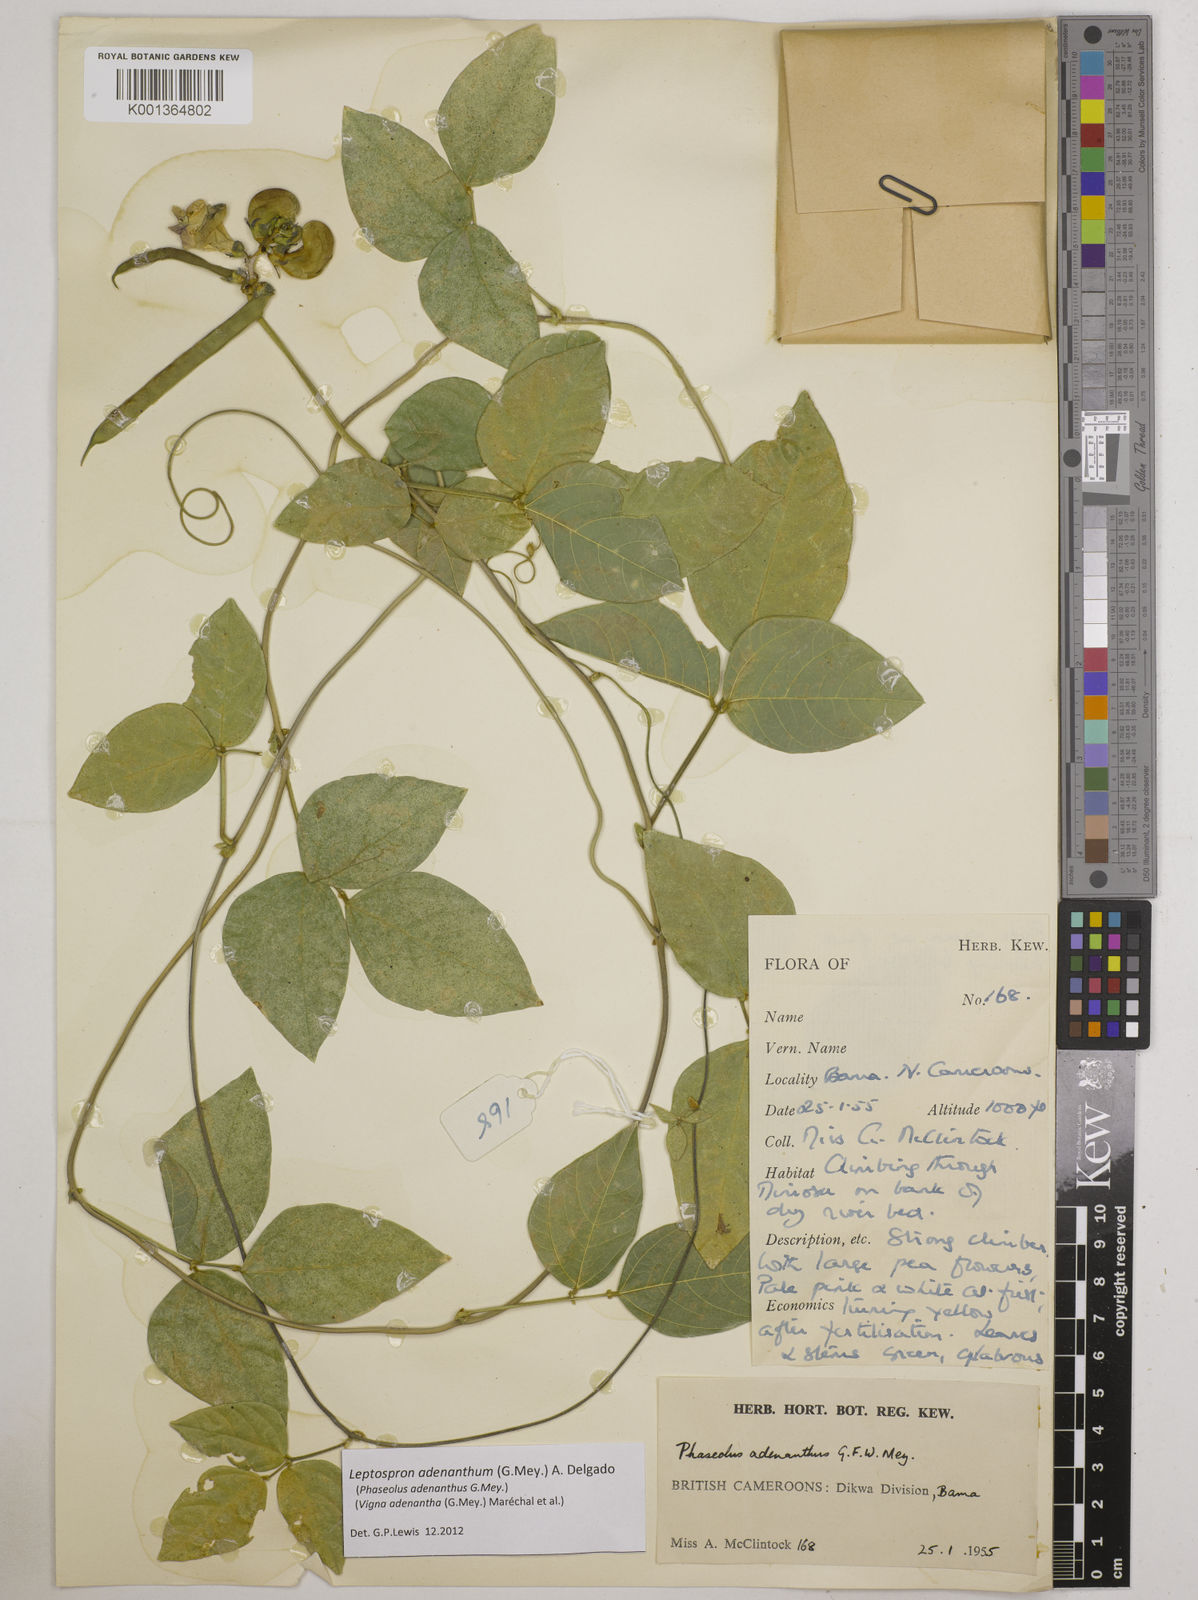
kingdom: Plantae
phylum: Tracheophyta
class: Magnoliopsida
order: Fabales
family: Fabaceae
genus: Leptospron
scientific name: Leptospron adenanthum
